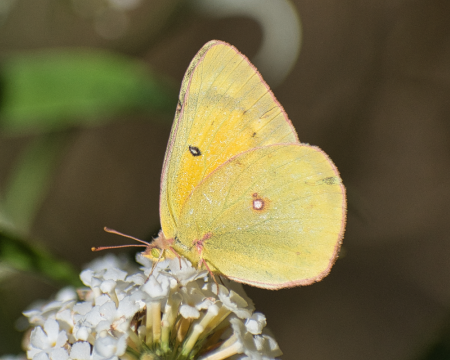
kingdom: Animalia
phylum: Arthropoda
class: Insecta
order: Lepidoptera
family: Pieridae
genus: Colias
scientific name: Colias eurytheme
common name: Orange Sulphur
